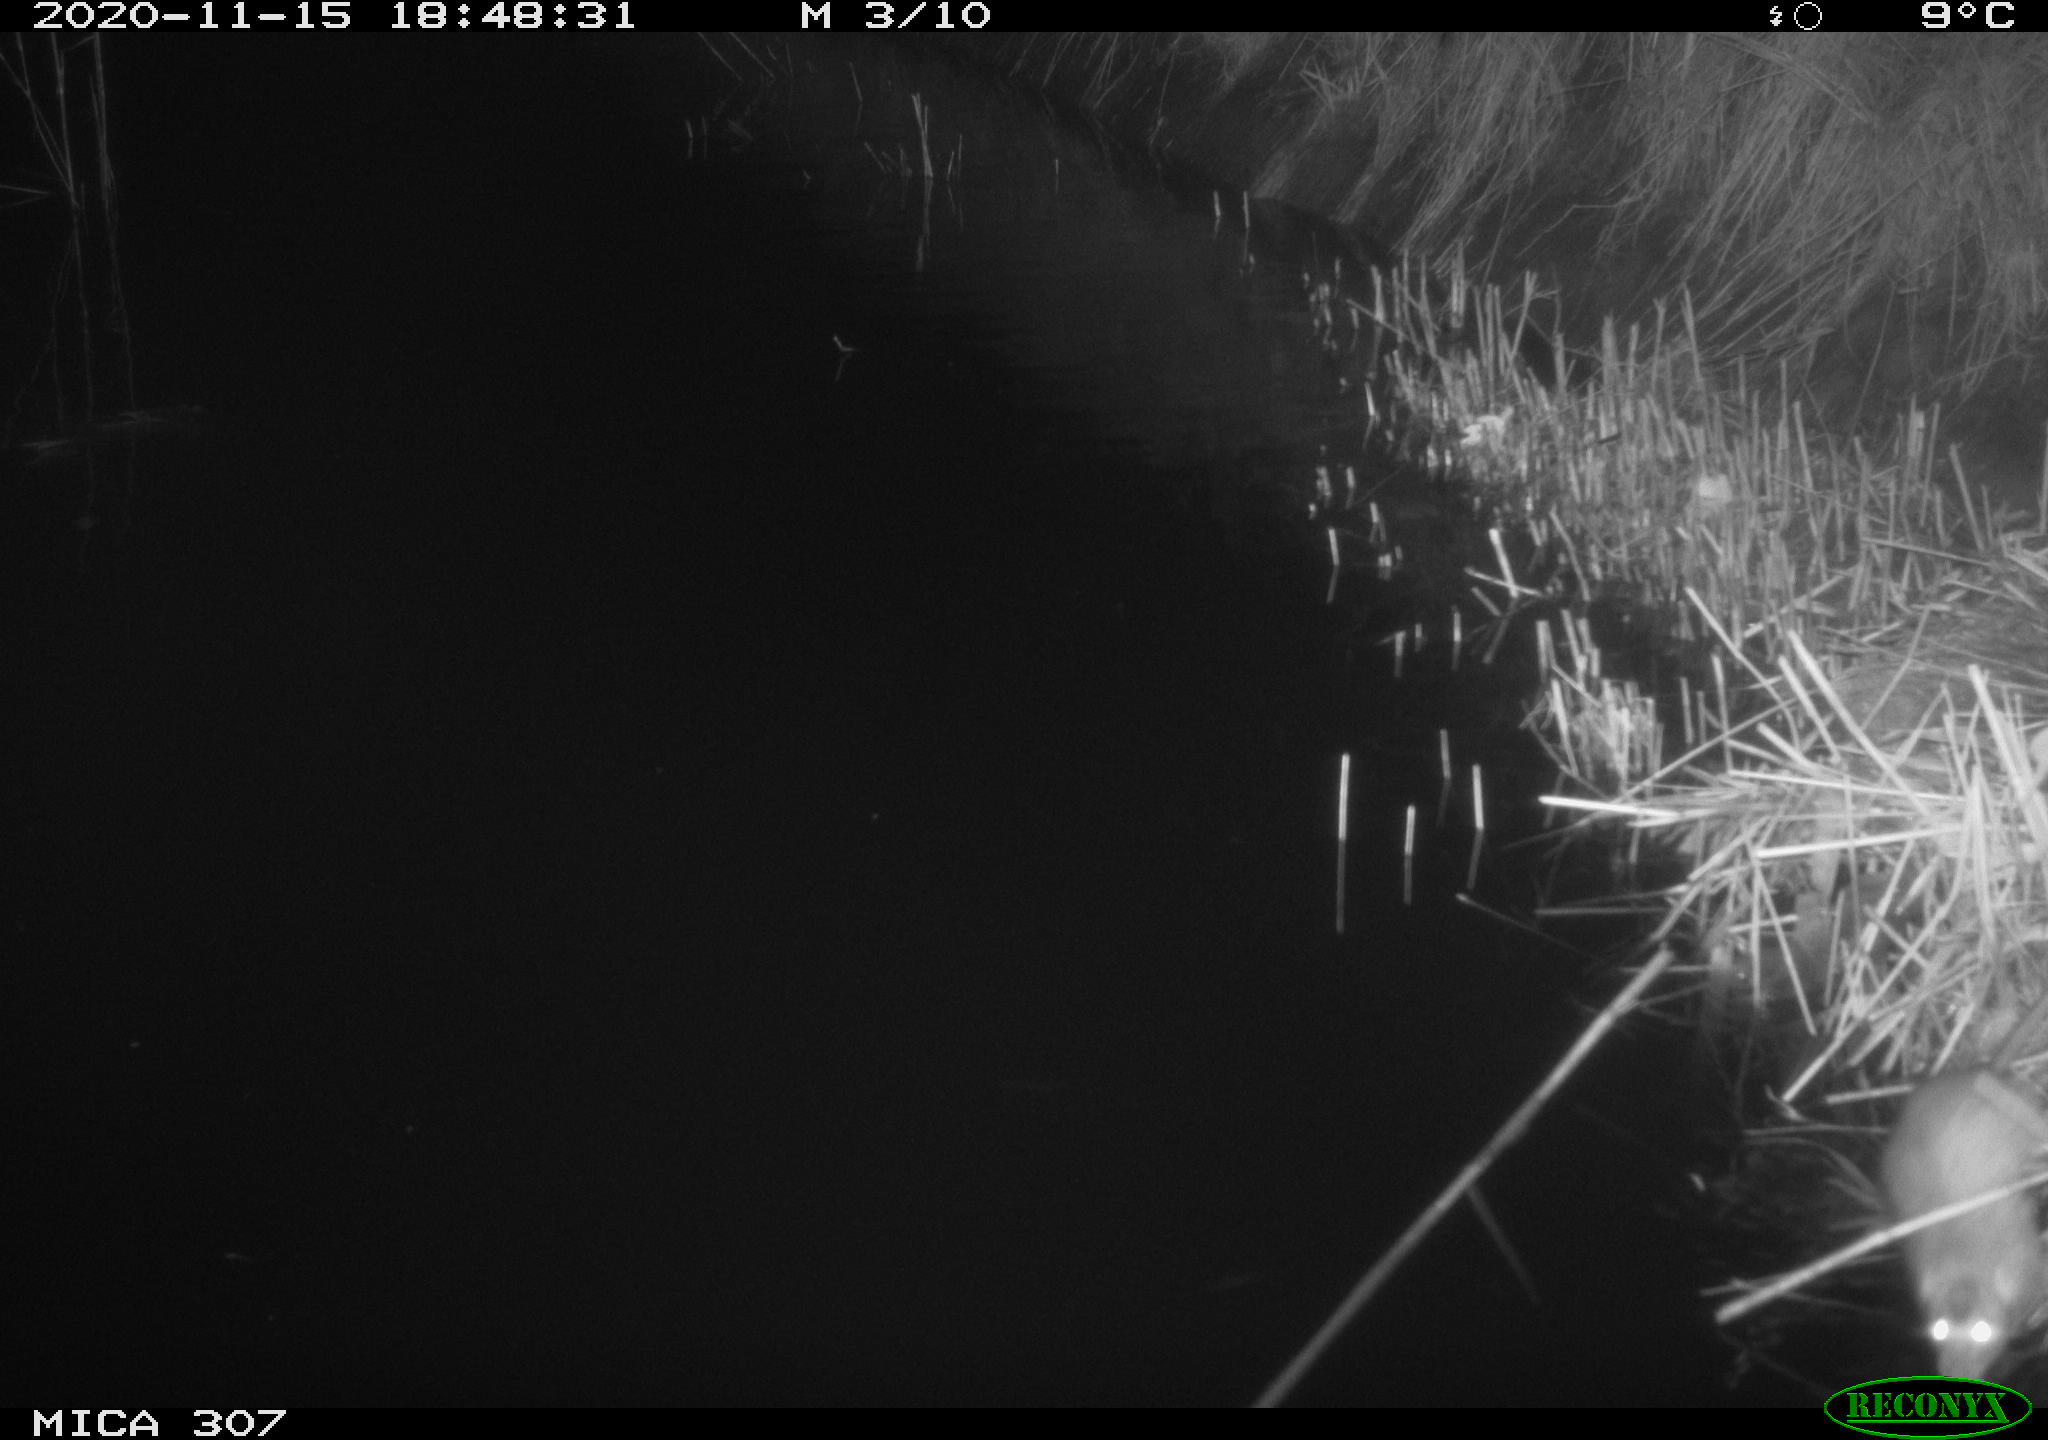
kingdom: Animalia
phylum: Chordata
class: Mammalia
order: Rodentia
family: Muridae
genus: Rattus
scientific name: Rattus norvegicus
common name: Brown rat
